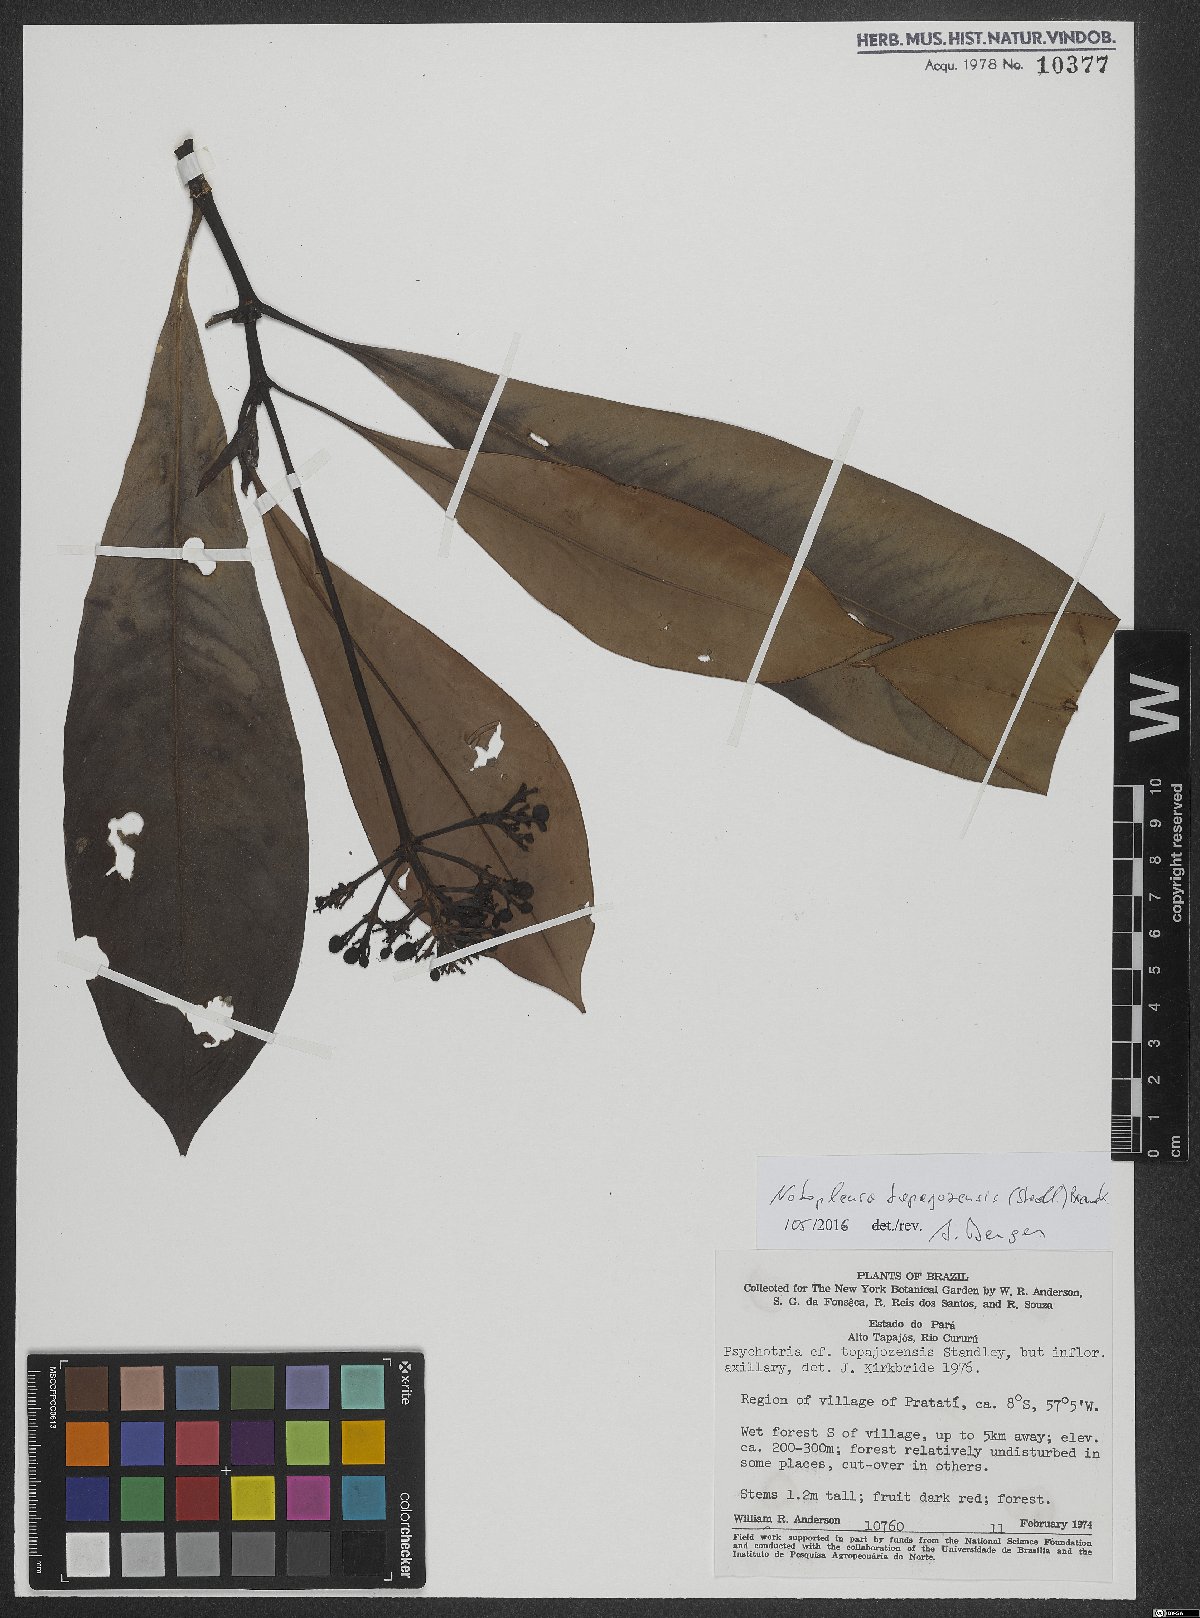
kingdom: Plantae
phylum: Tracheophyta
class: Magnoliopsida
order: Gentianales
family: Rubiaceae
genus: Notopleura
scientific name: Notopleura tapajozensis
